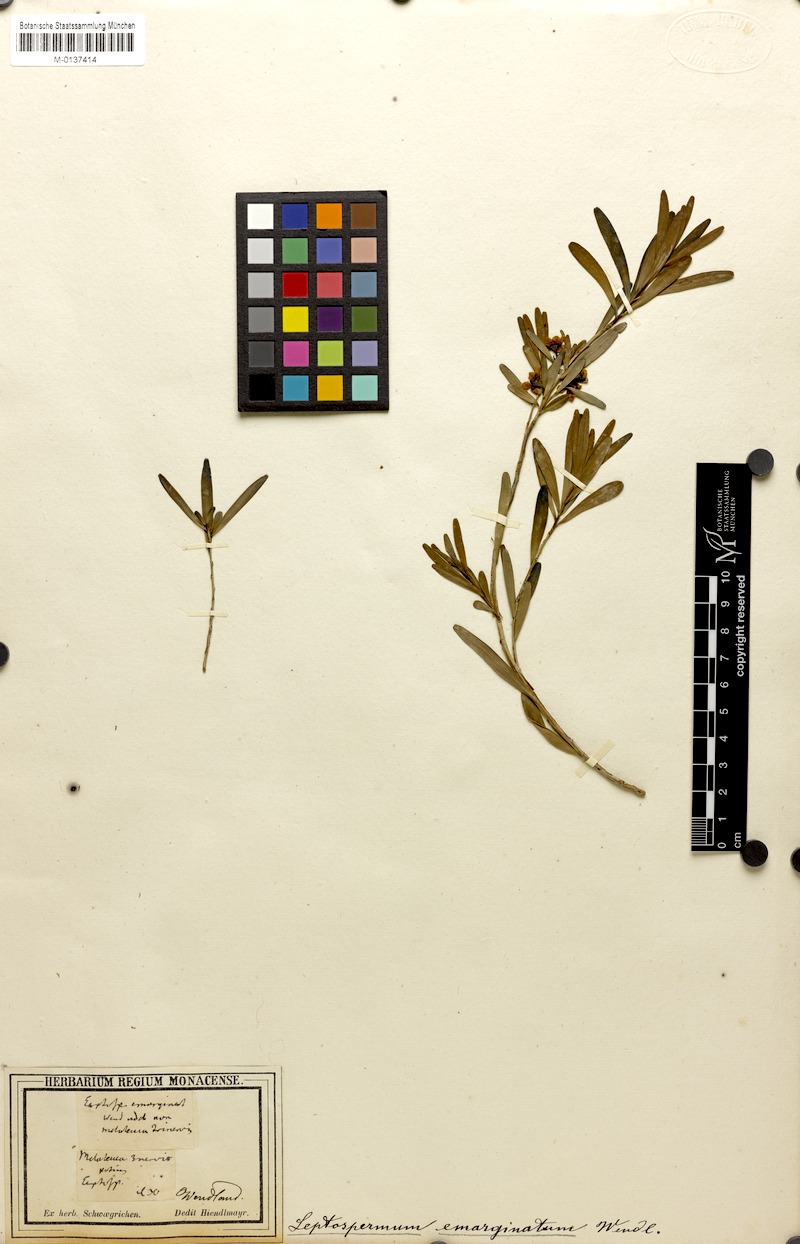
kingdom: Plantae
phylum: Tracheophyta
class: Magnoliopsida
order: Myrtales
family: Myrtaceae
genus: Leptospermum
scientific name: Leptospermum emarginatum
